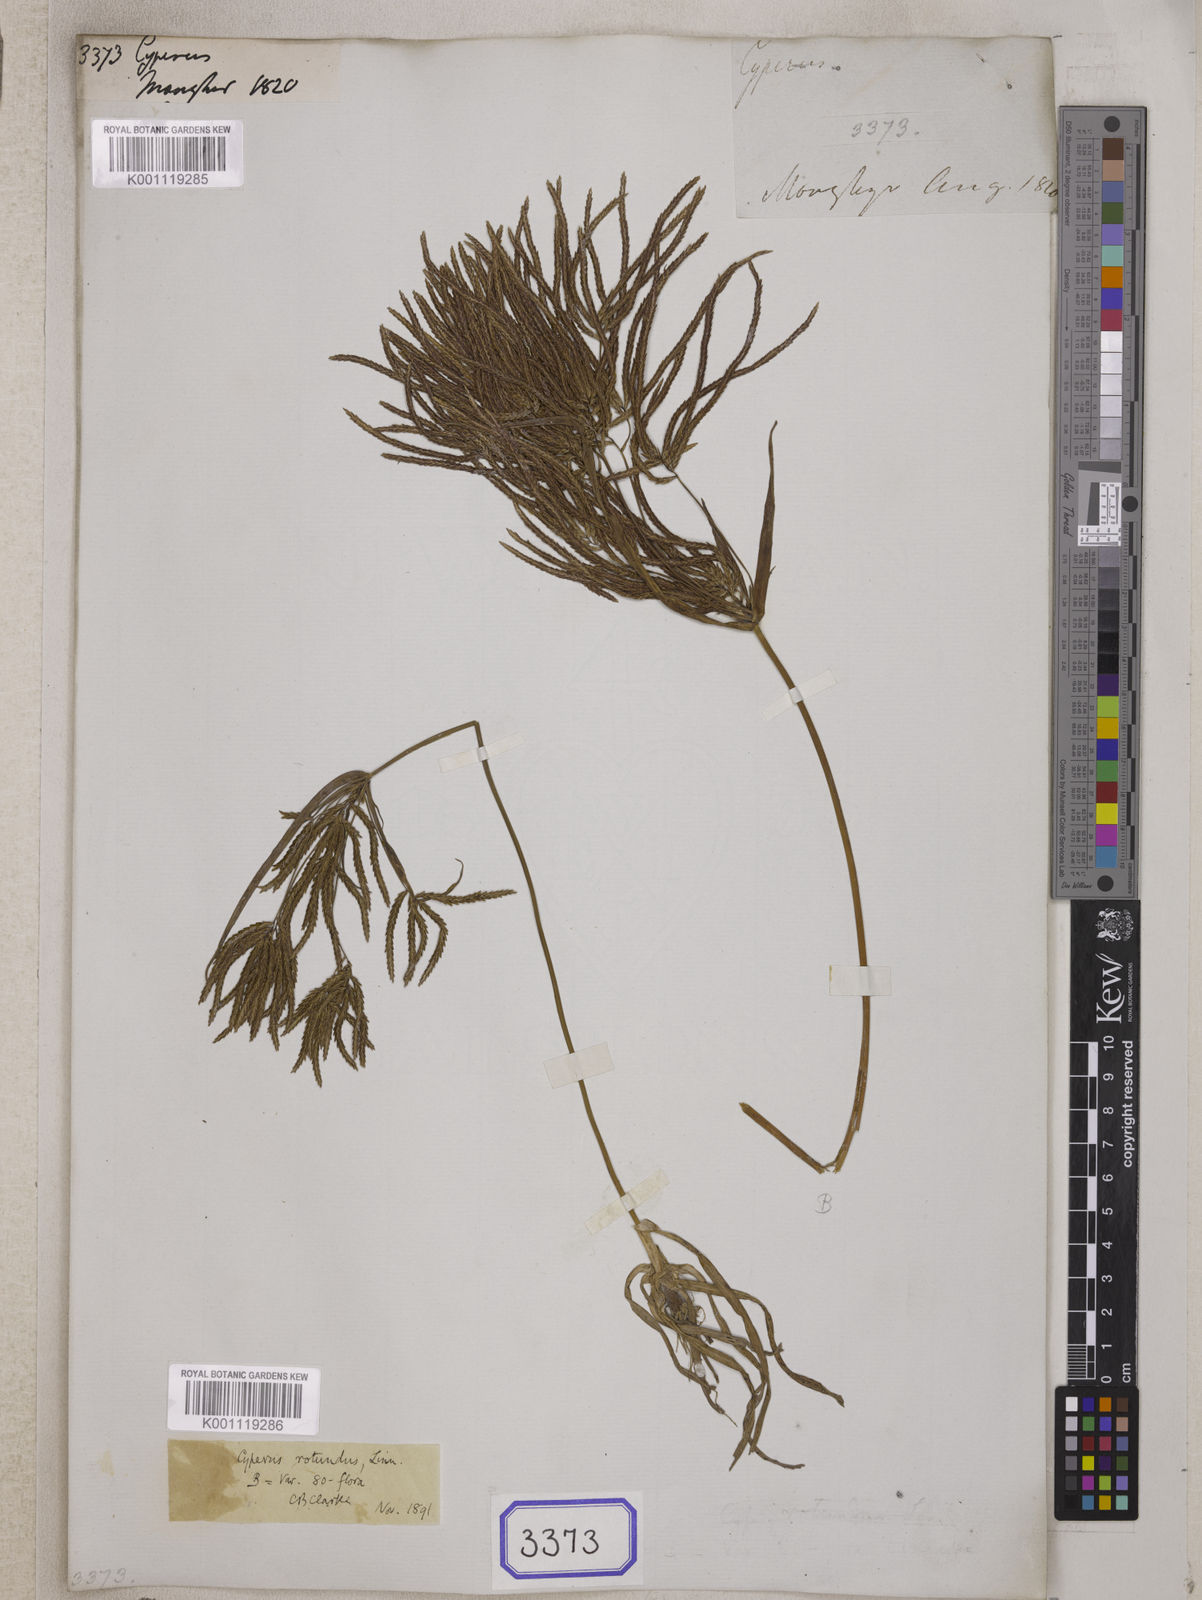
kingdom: Plantae
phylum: Tracheophyta
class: Liliopsida
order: Poales
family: Cyperaceae
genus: Cyperus
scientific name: Cyperus
